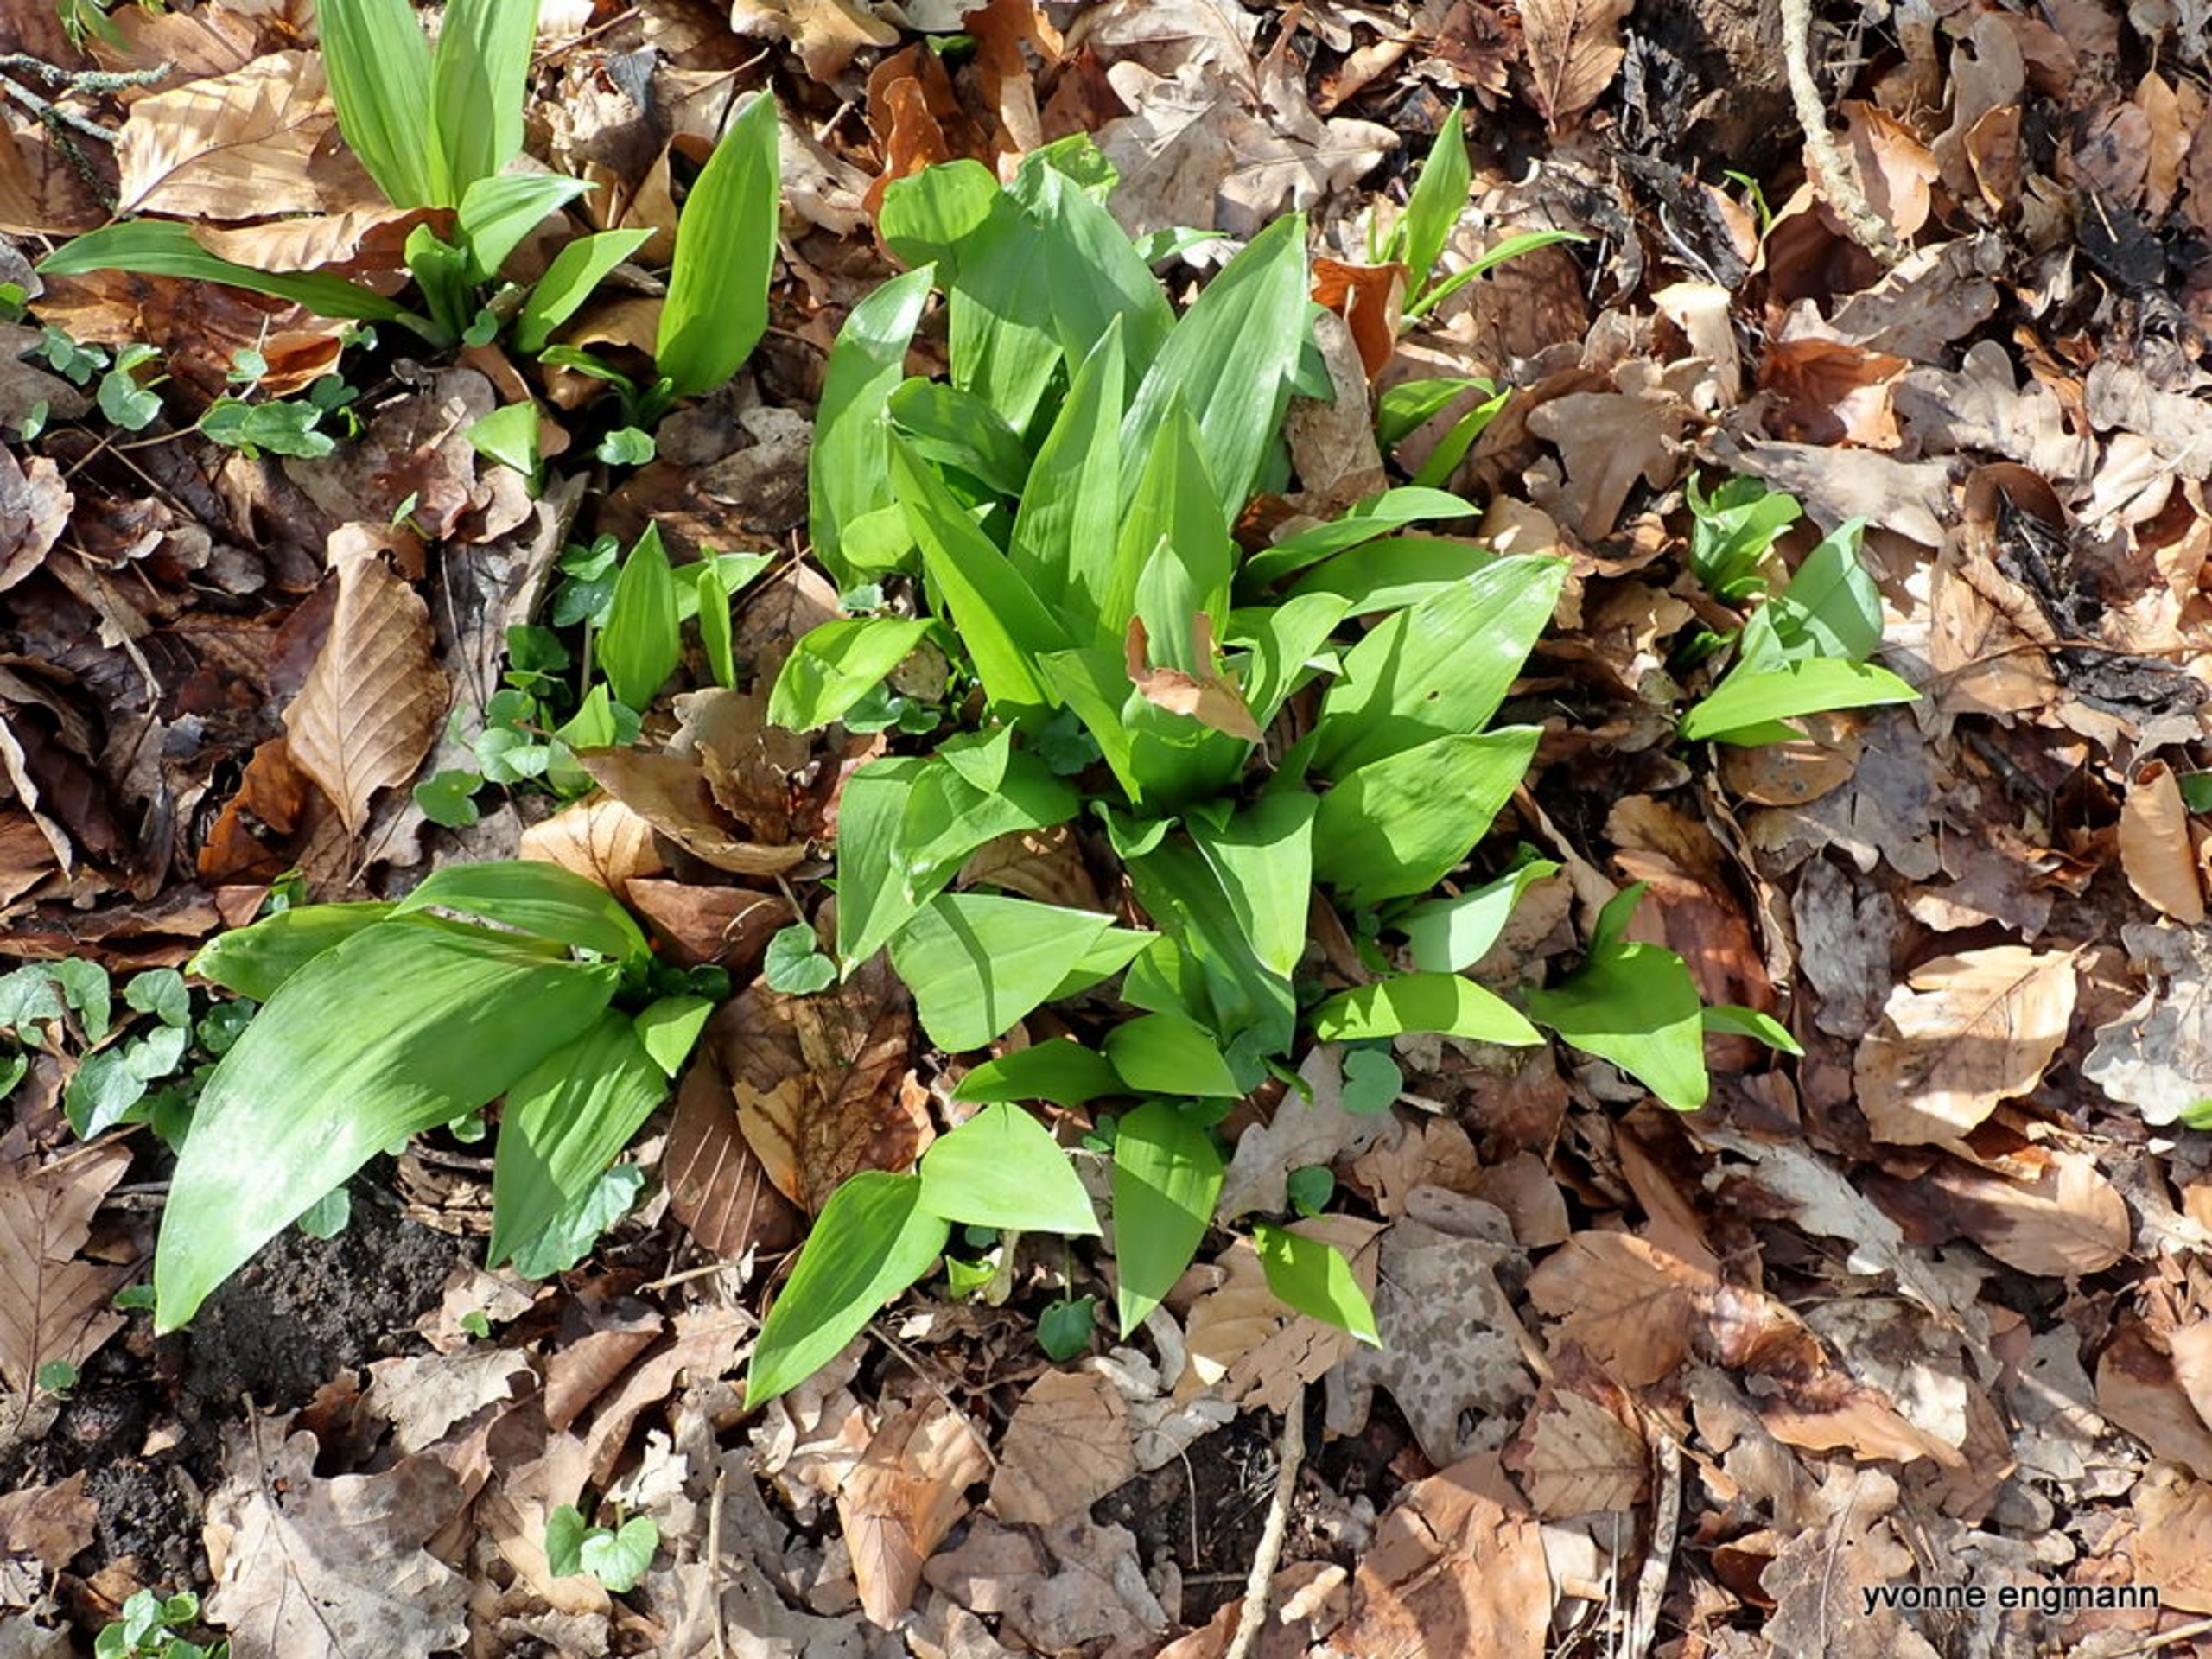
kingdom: Plantae
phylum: Tracheophyta
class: Liliopsida
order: Asparagales
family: Amaryllidaceae
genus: Allium
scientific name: Allium ursinum
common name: Rams-løg
